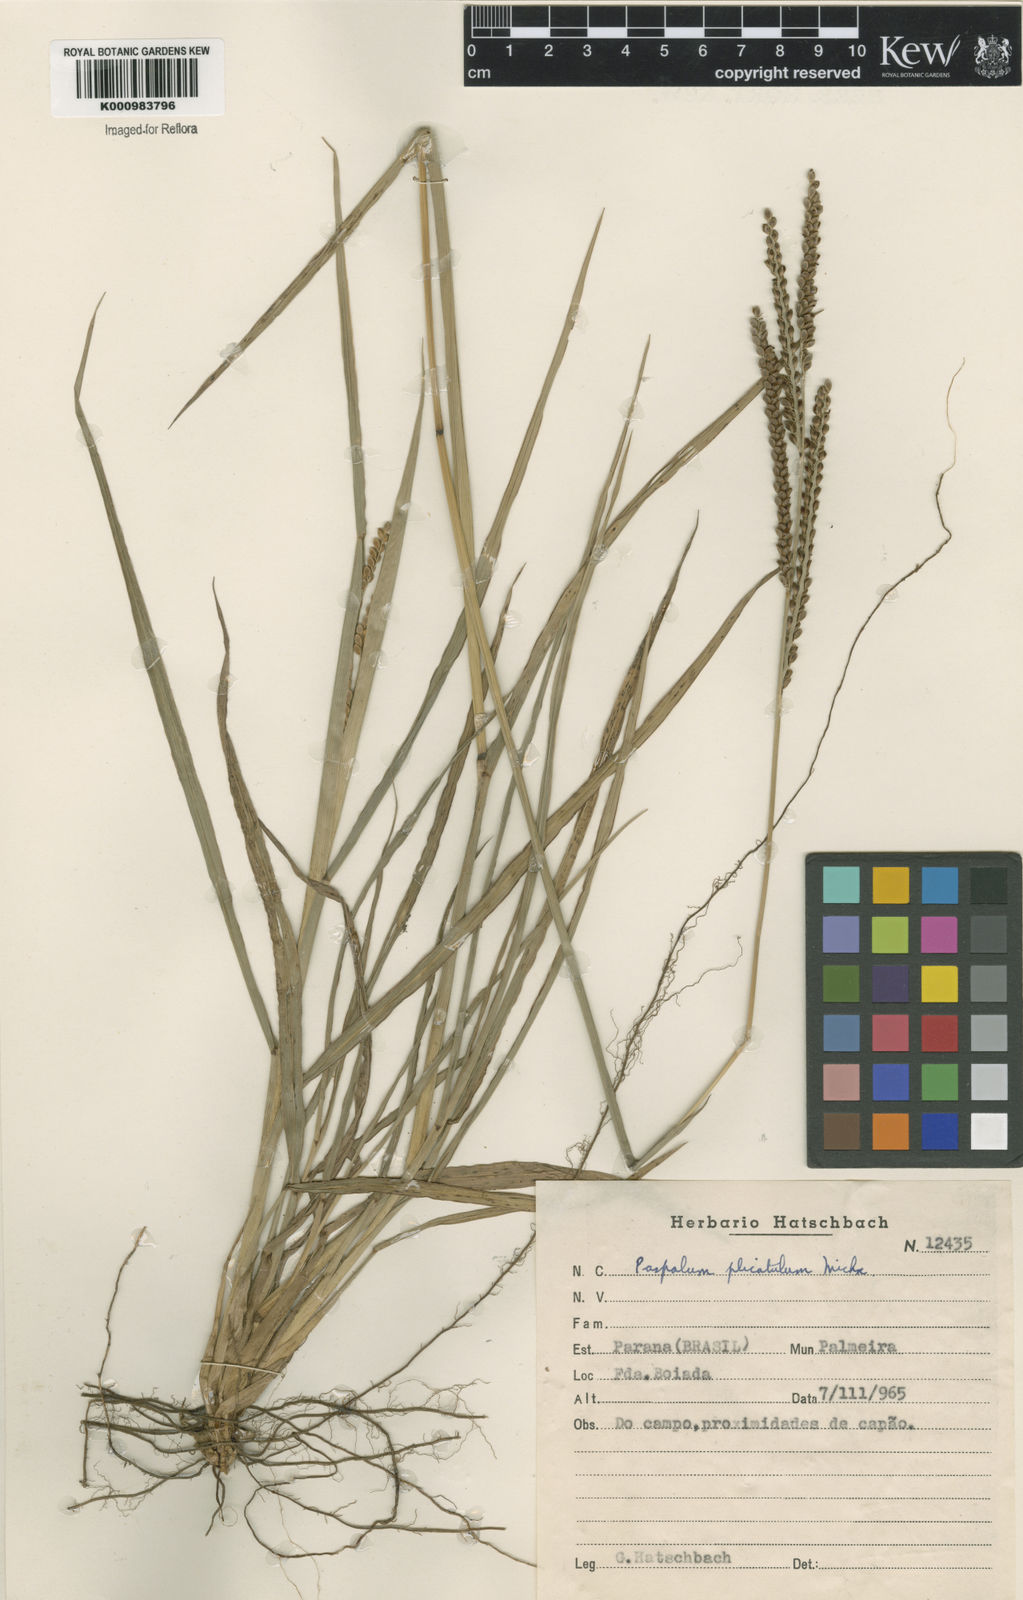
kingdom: Plantae
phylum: Tracheophyta
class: Liliopsida
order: Poales
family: Poaceae
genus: Paspalum
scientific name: Paspalum plicatulum
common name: Top paspalum
